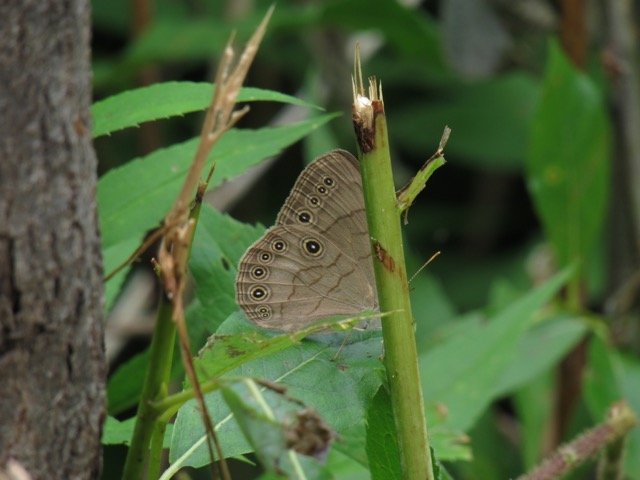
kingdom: Animalia
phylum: Arthropoda
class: Insecta
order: Lepidoptera
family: Nymphalidae
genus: Lethe
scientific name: Lethe eurydice
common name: Appalachian Eyed Brown
